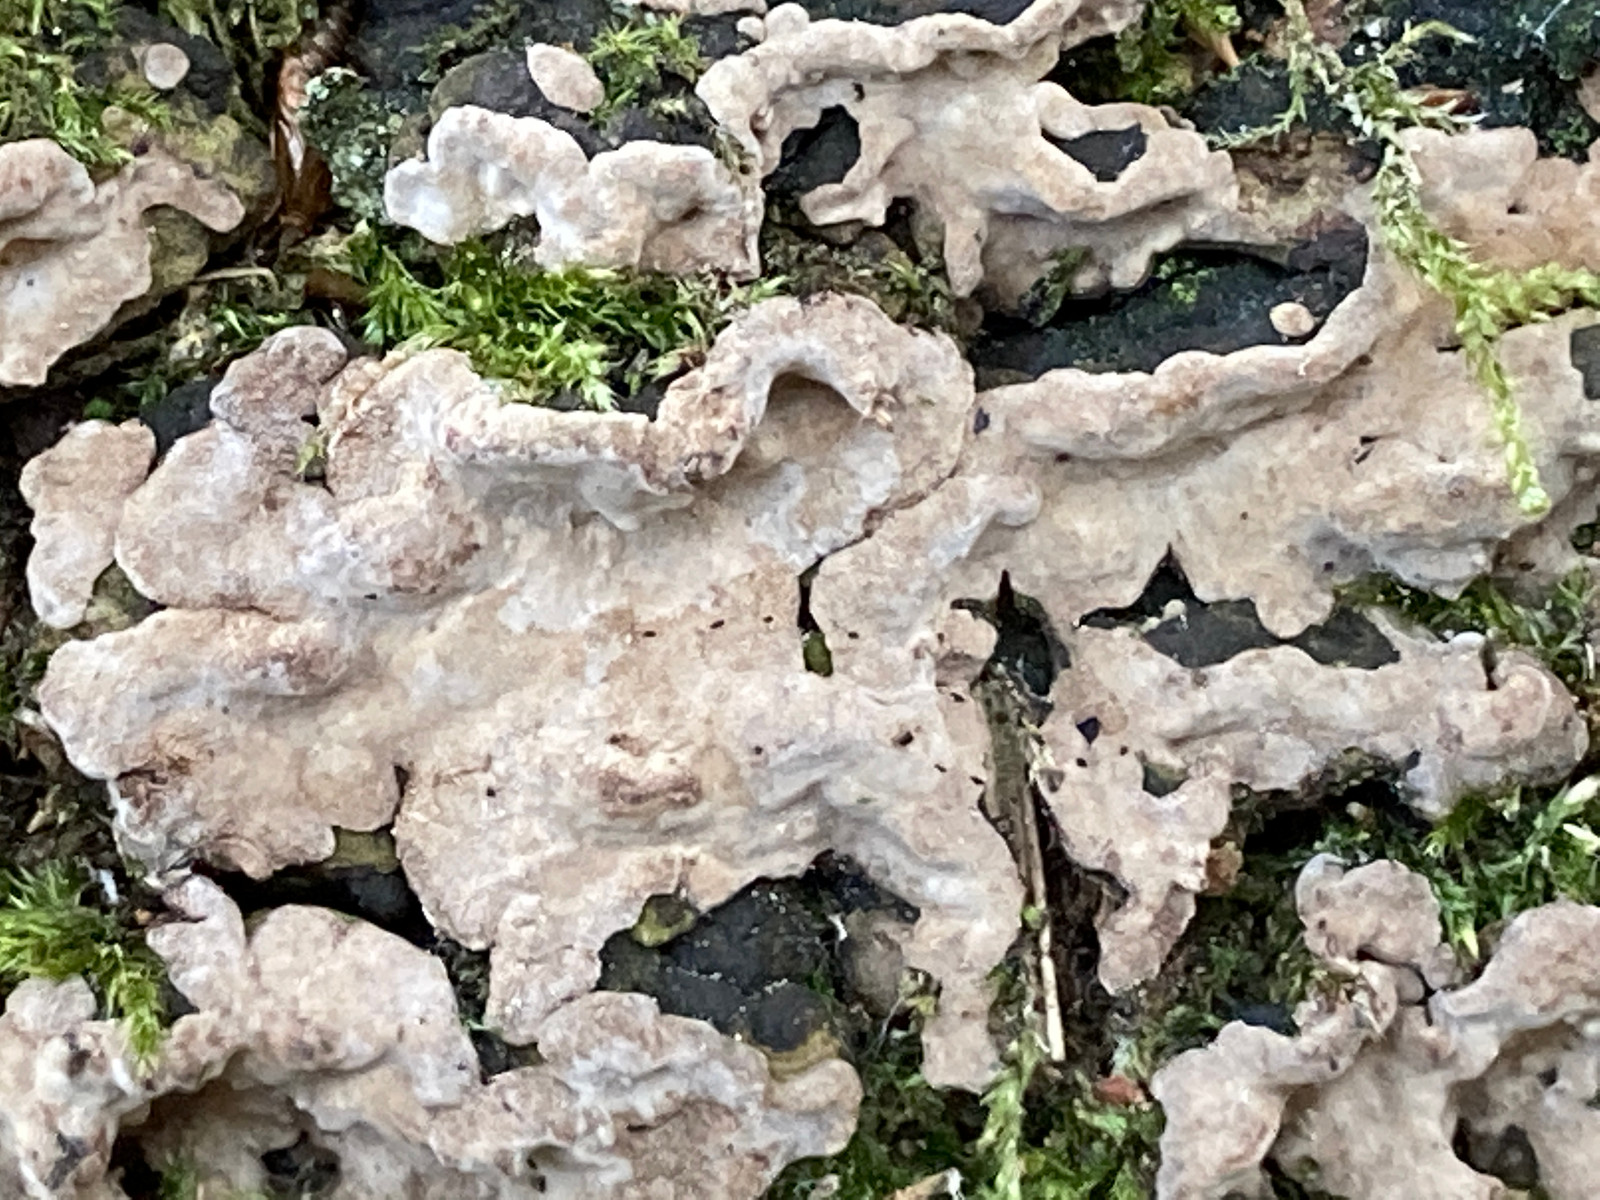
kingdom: Fungi
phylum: Basidiomycota
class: Agaricomycetes
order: Russulales
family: Echinodontiaceae
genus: Amylostereum
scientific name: Amylostereum chailletii
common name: gran-lædersvamp
